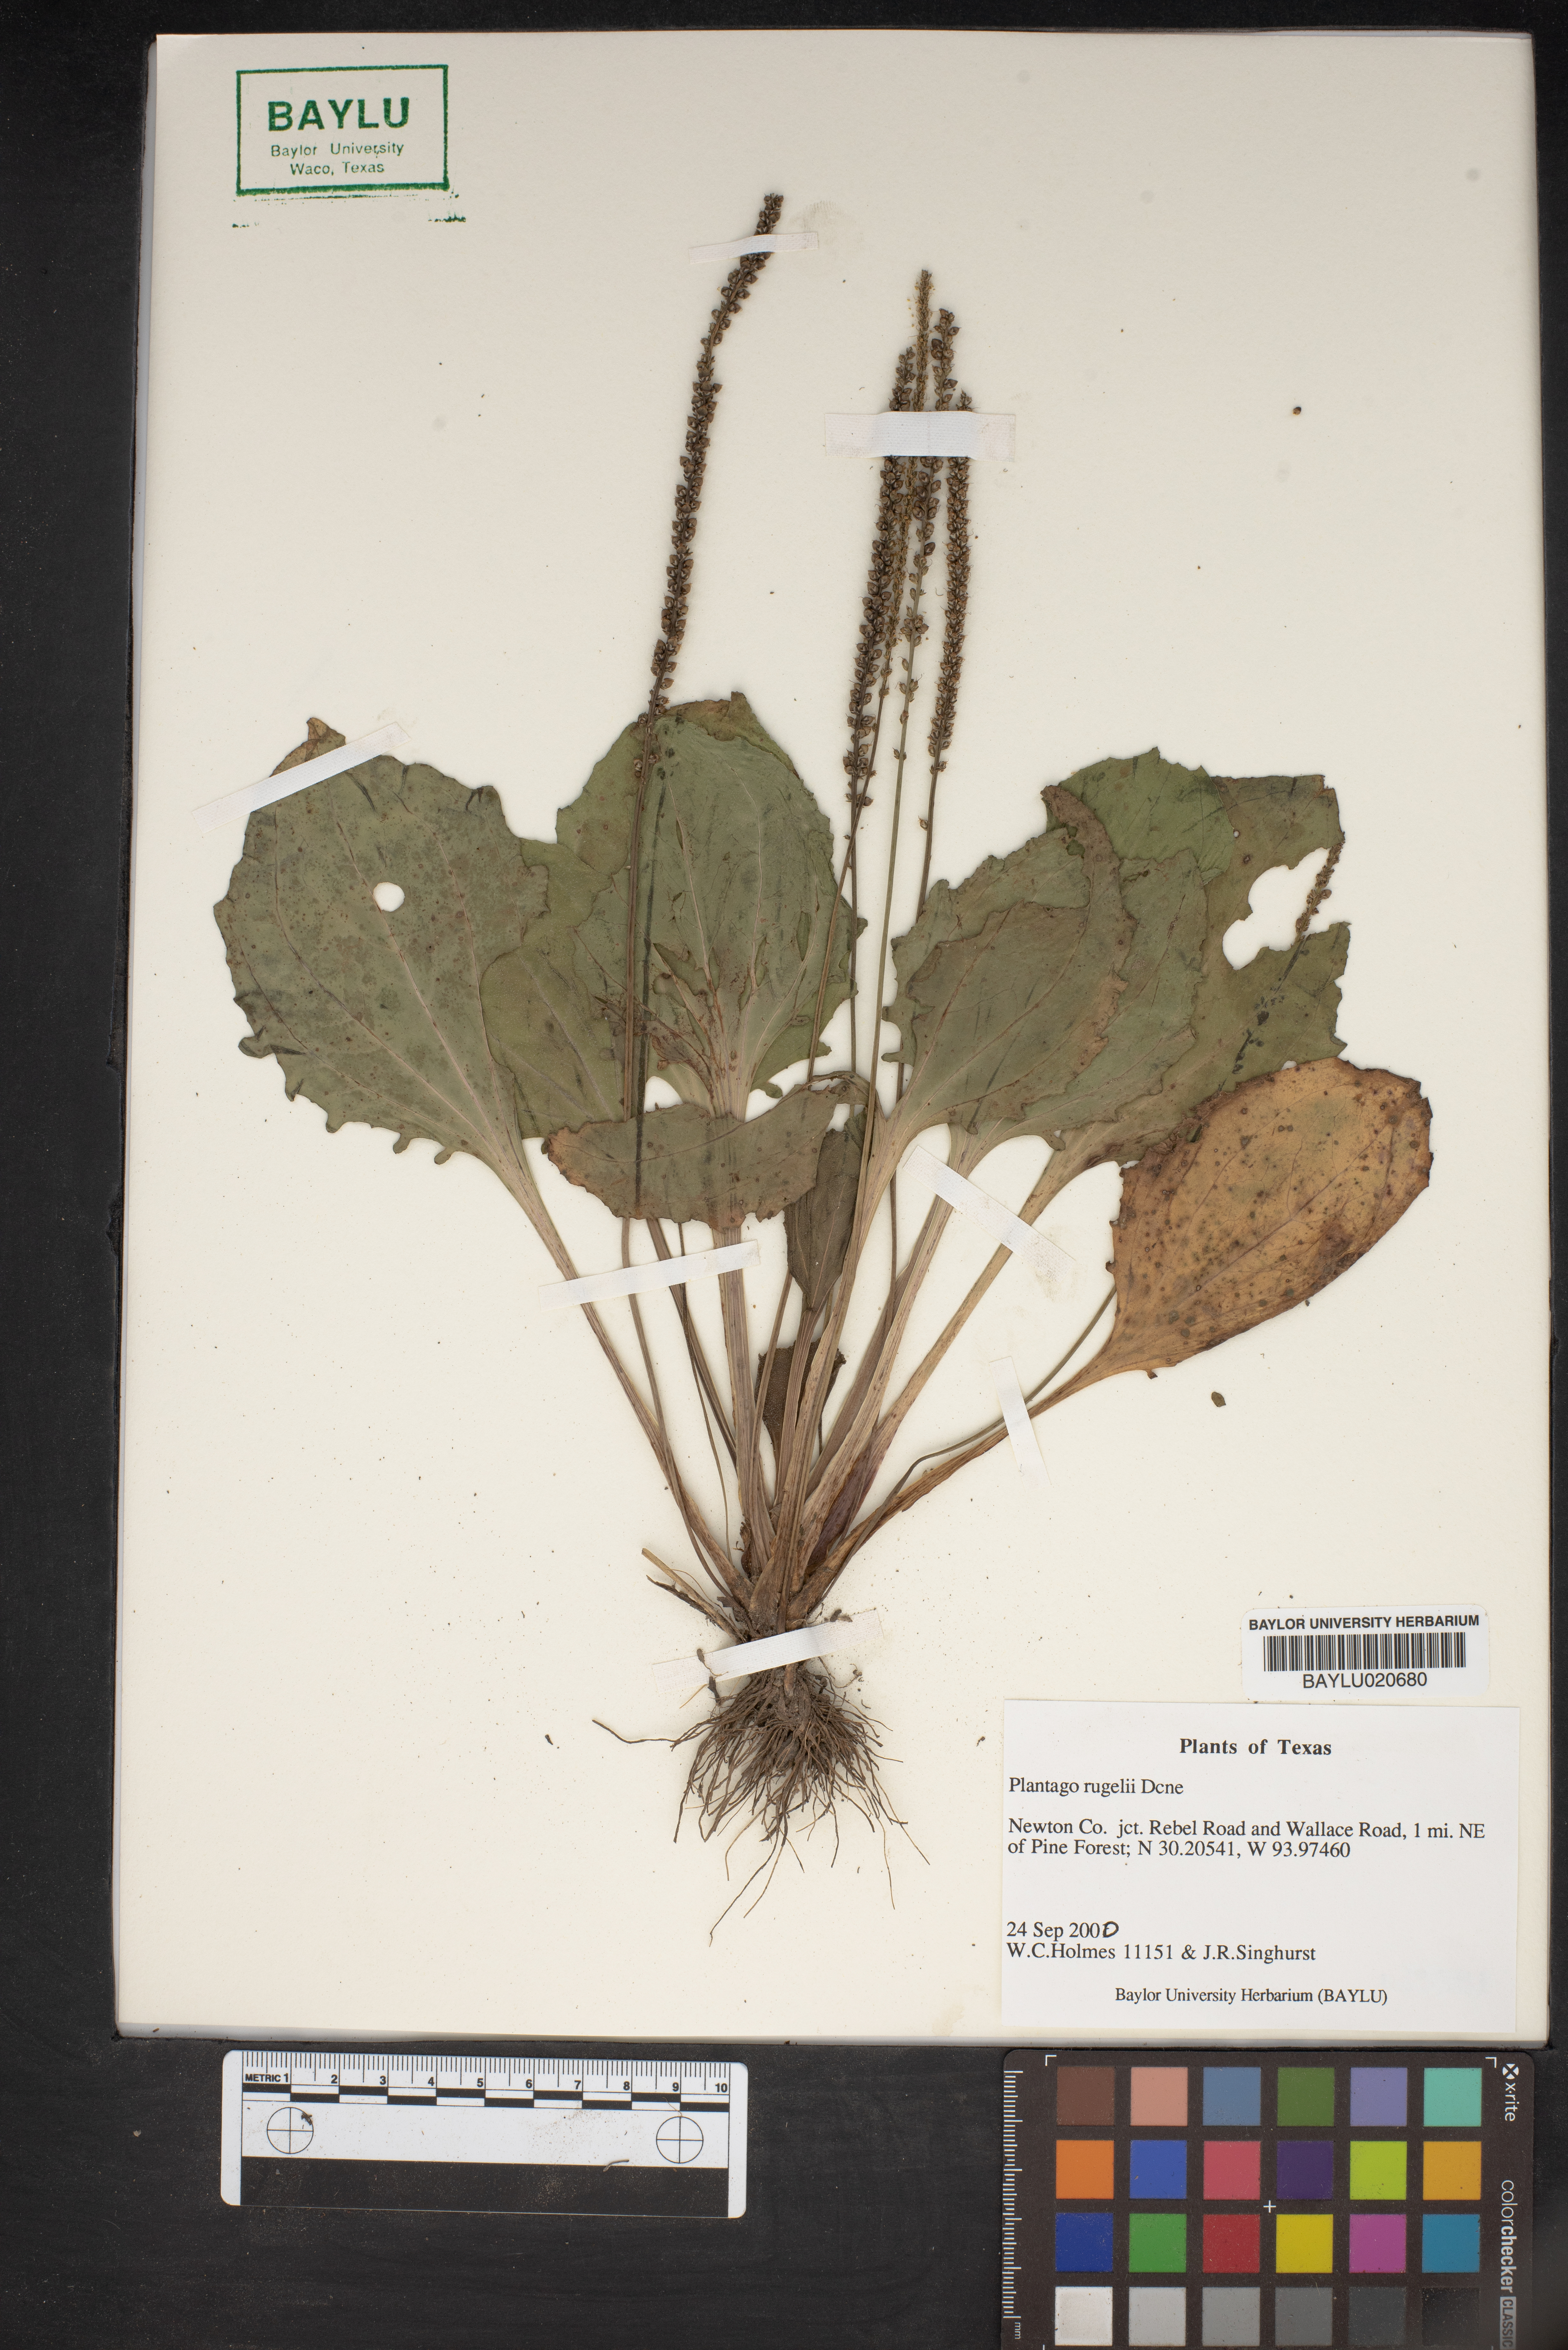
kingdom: Plantae
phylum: Tracheophyta
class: Magnoliopsida
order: Lamiales
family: Plantaginaceae
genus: Plantago
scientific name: Plantago rugelii
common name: American plantain
